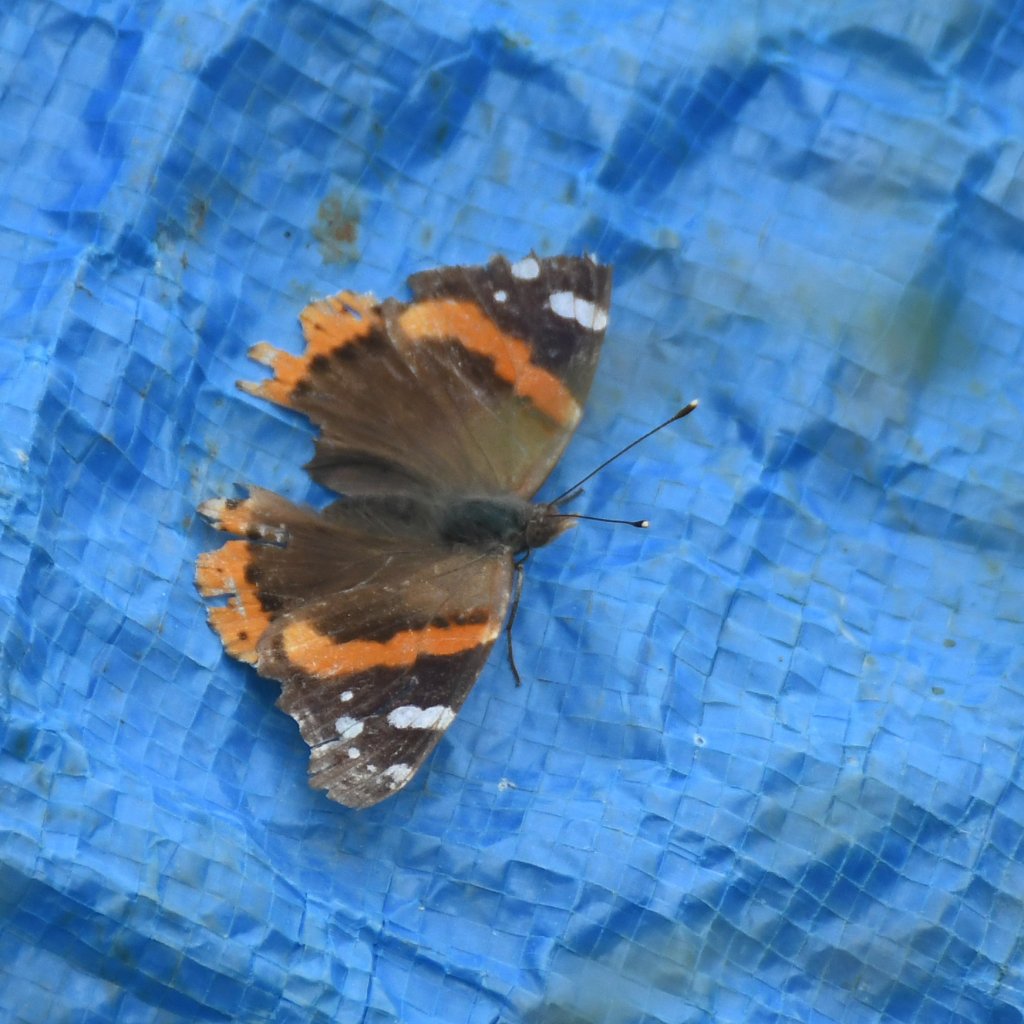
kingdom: Animalia
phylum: Arthropoda
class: Insecta
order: Lepidoptera
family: Nymphalidae
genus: Vanessa
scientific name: Vanessa atalanta
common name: Red Admiral
